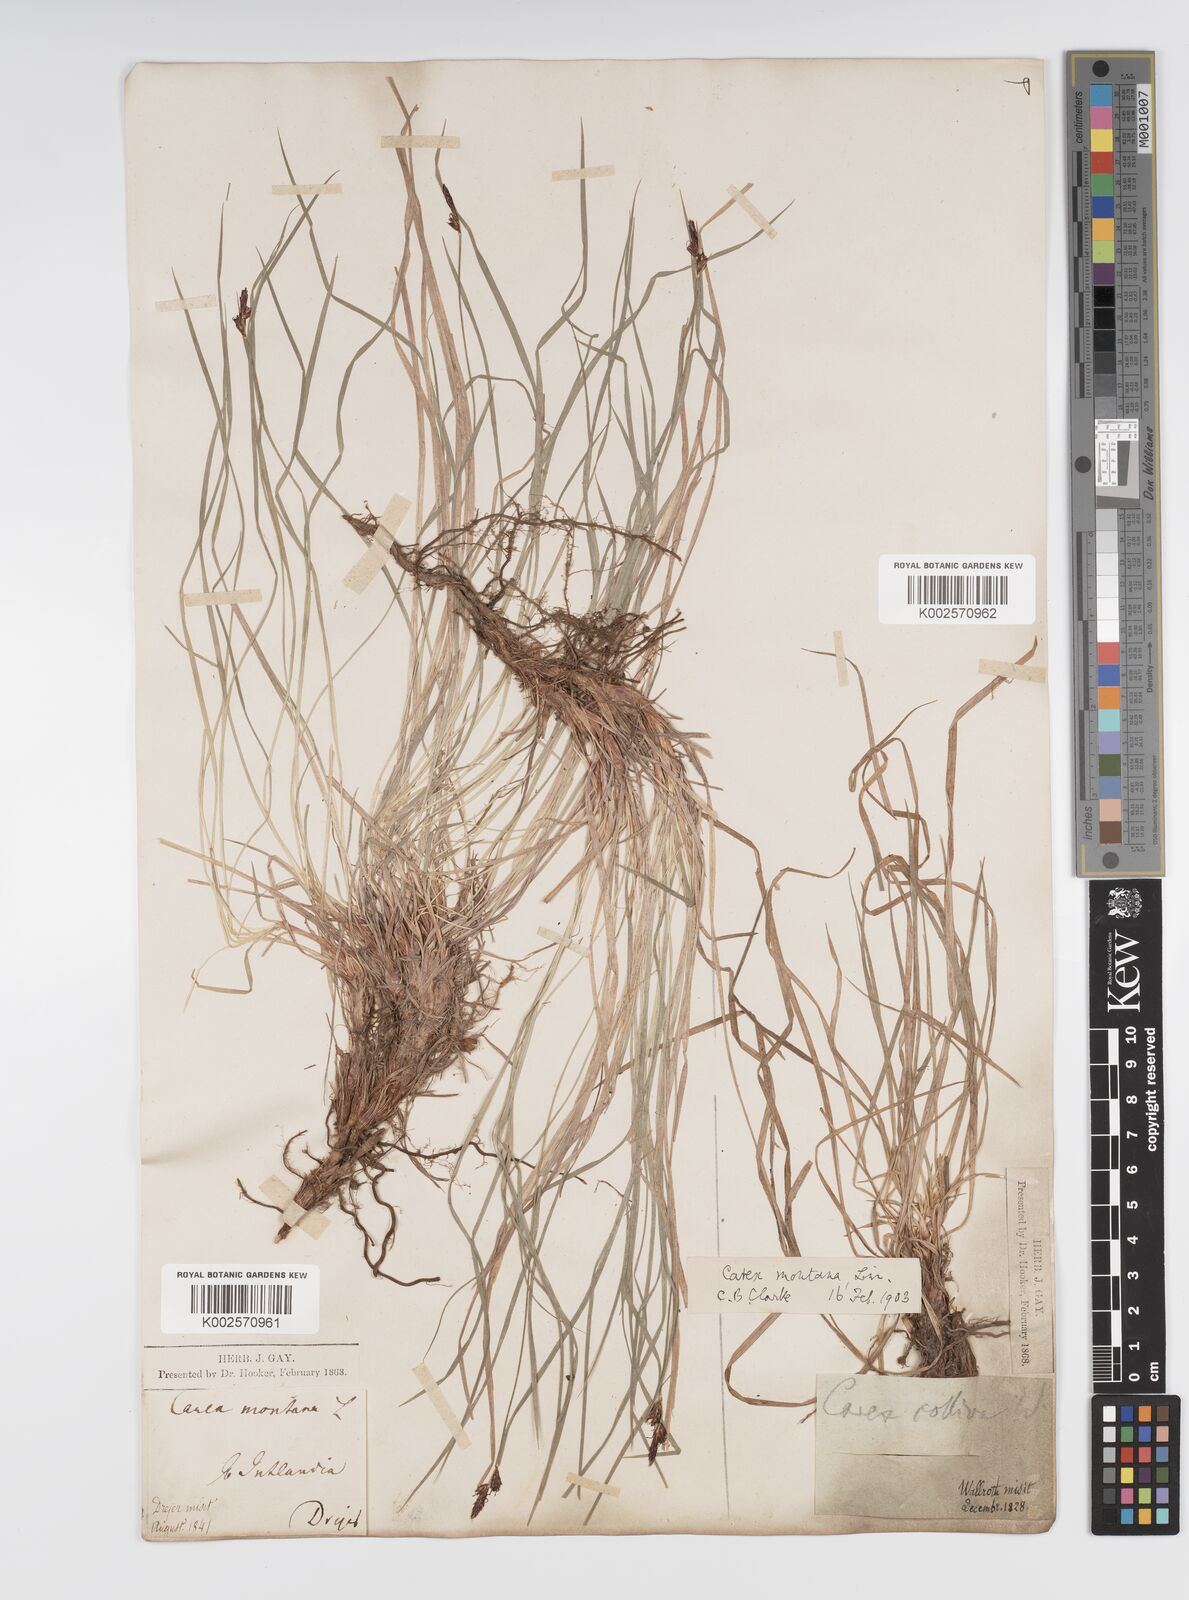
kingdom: Plantae
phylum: Tracheophyta
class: Liliopsida
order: Poales
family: Cyperaceae
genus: Carex
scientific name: Carex montana
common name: Soft-leaved sedge
